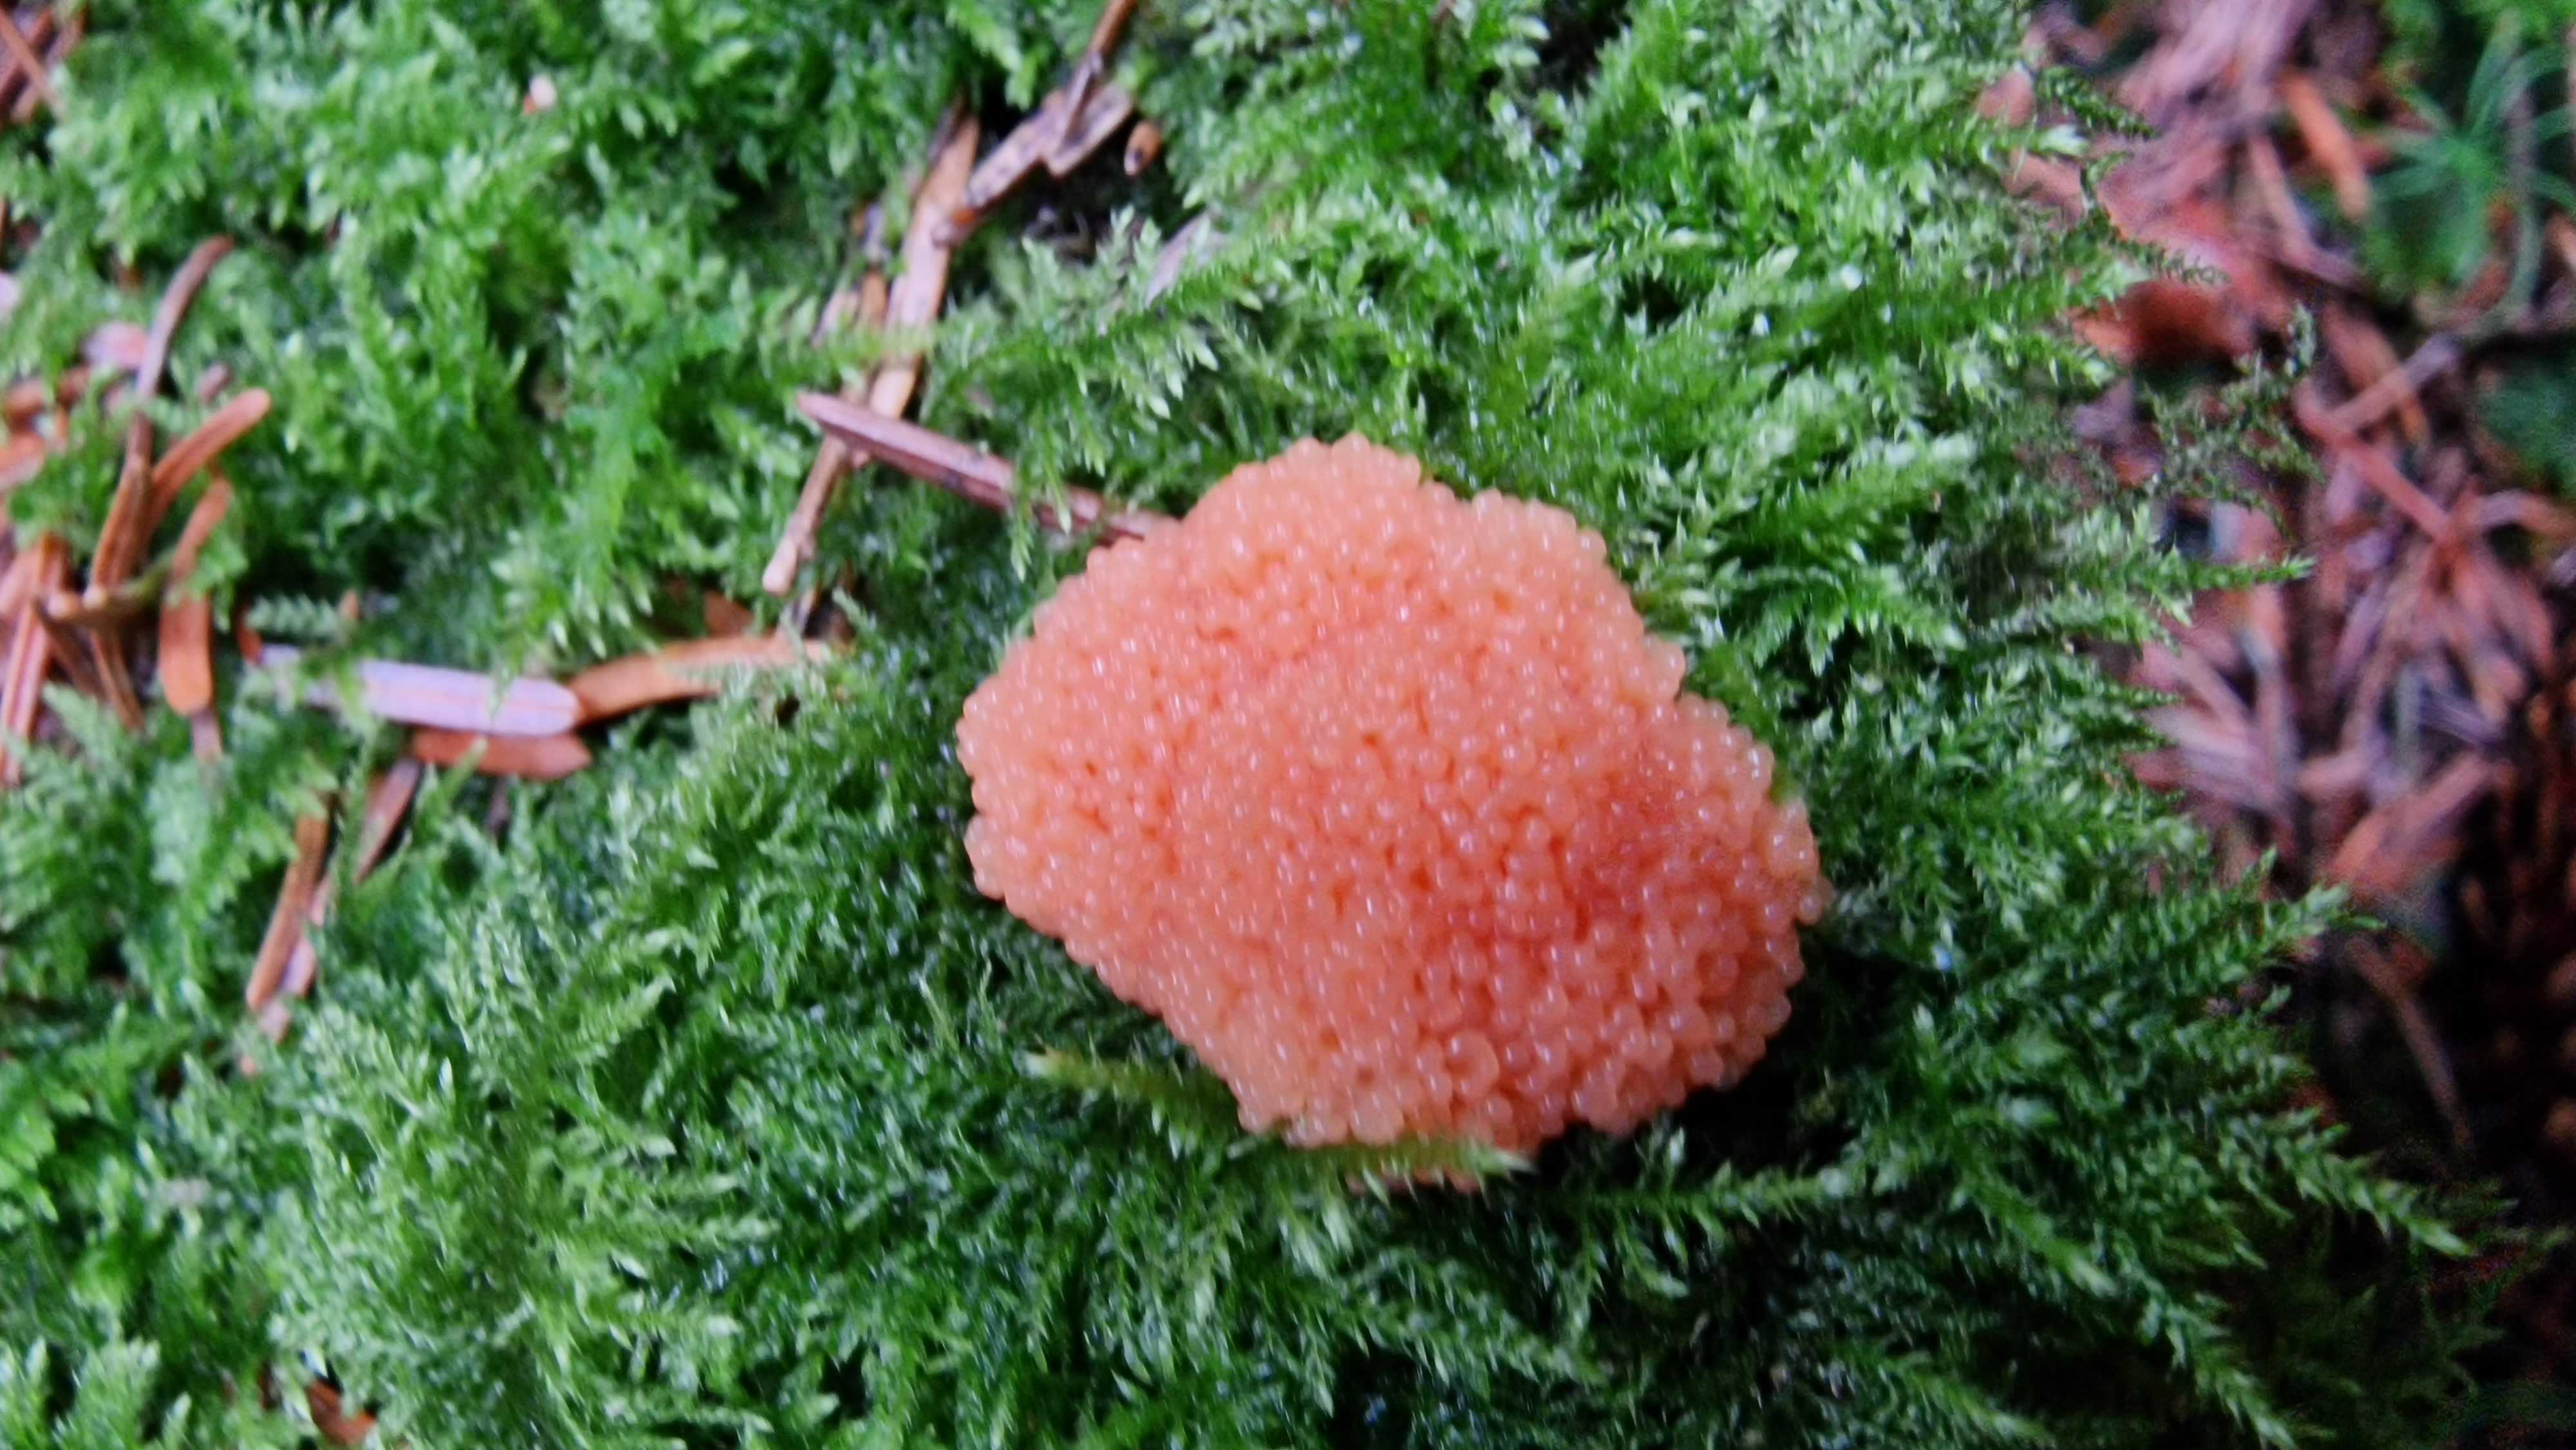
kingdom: Protozoa
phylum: Mycetozoa
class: Myxomycetes
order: Cribrariales
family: Tubiferaceae
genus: Tubifera
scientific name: Tubifera ferruginosa
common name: kanel-støvrør
